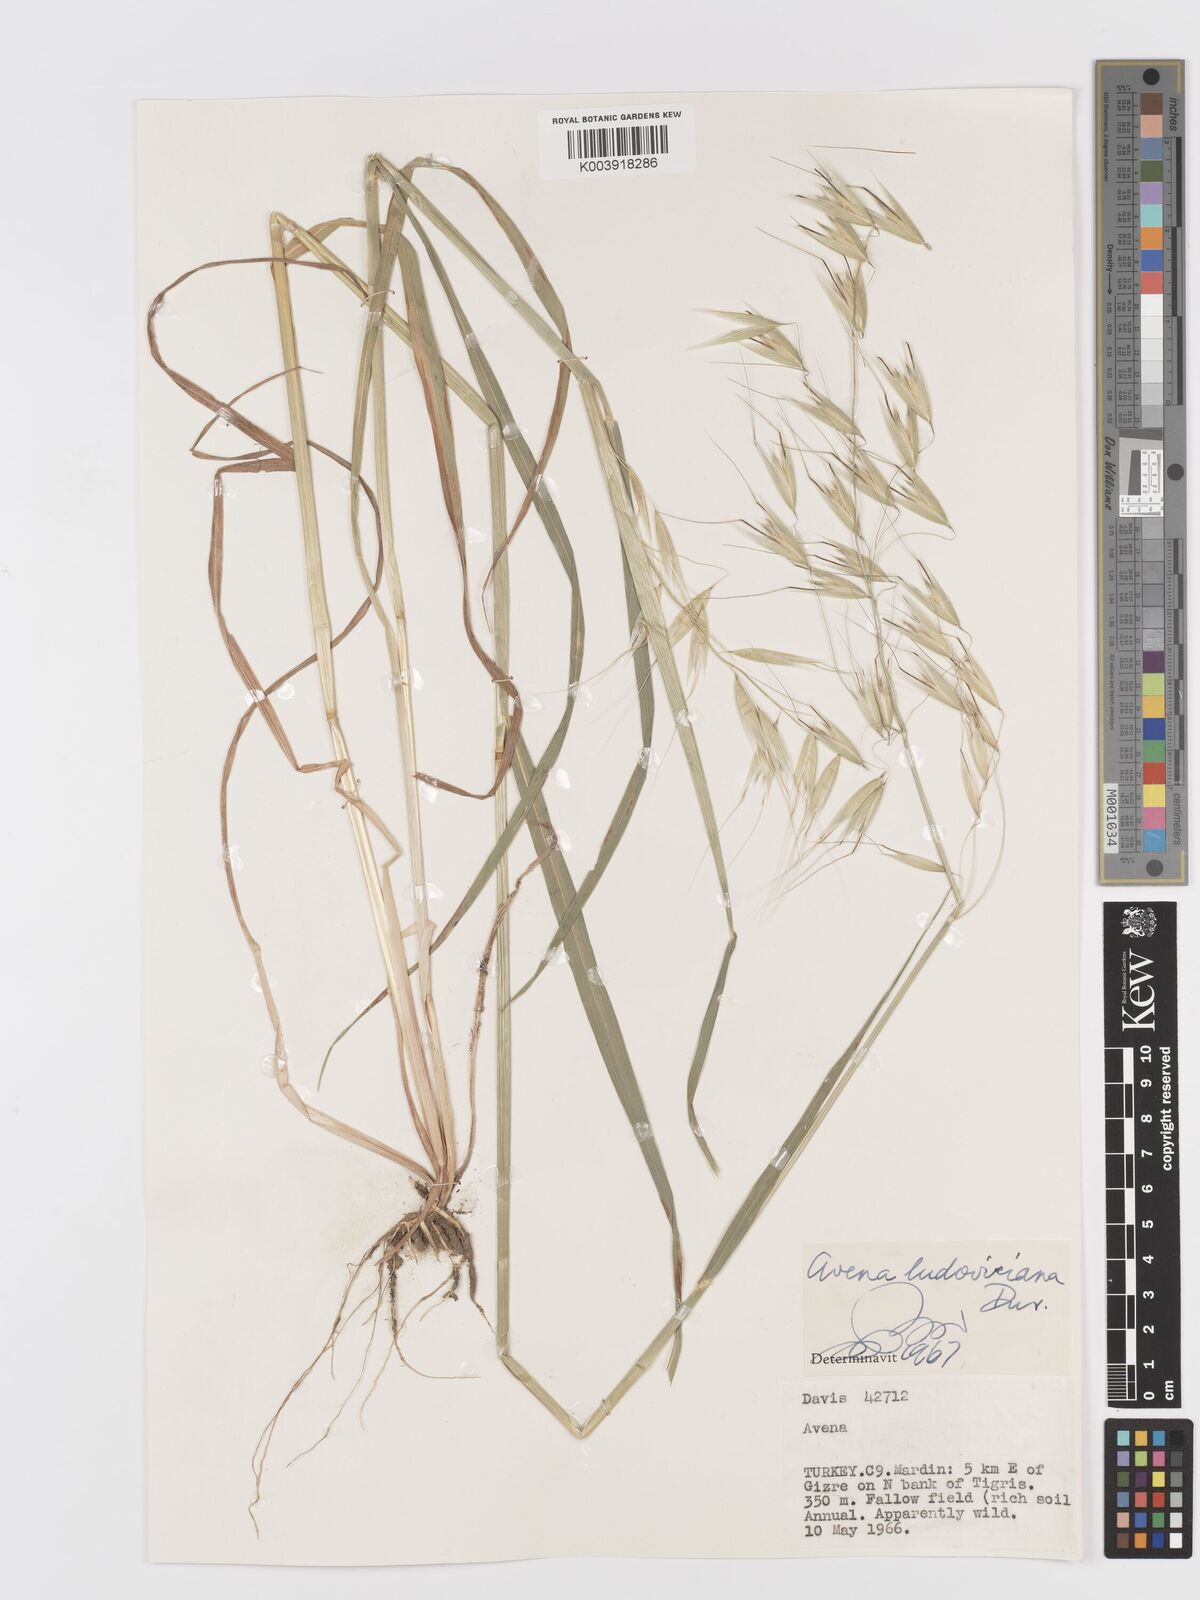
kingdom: Plantae
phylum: Tracheophyta
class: Liliopsida
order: Poales
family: Poaceae
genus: Avena
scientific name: Avena sterilis
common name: Animated oat
